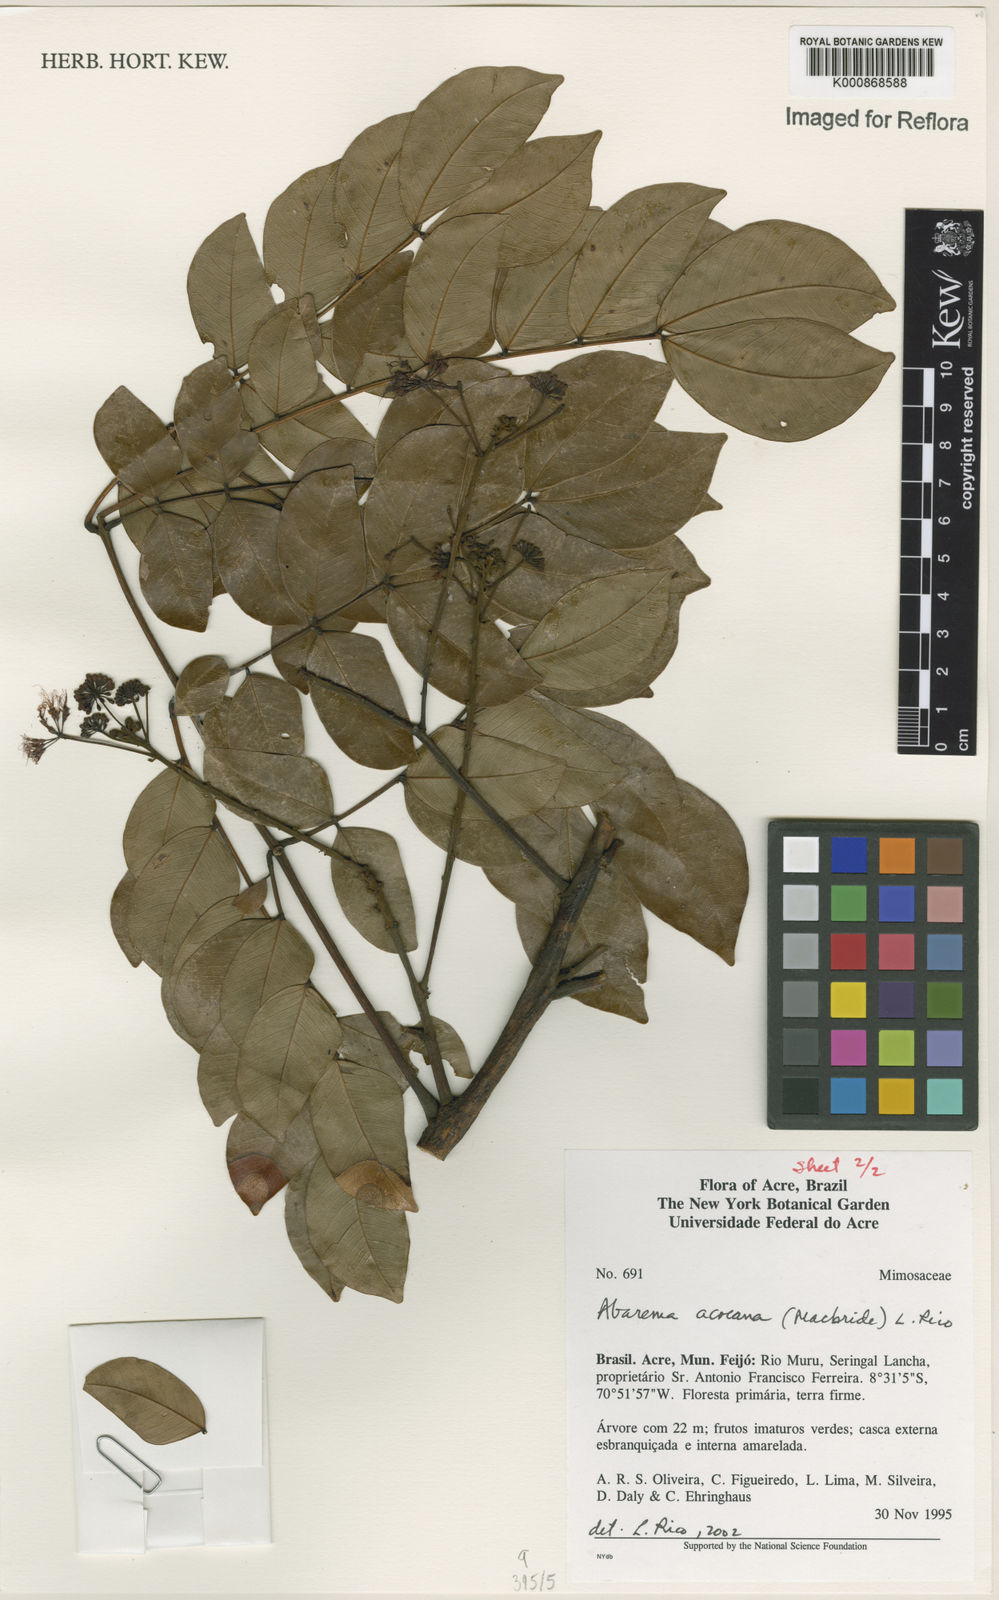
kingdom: Plantae
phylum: Tracheophyta
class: Magnoliopsida
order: Fabales
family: Fabaceae
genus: Hydrochorea
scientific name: Hydrochorea acreana
